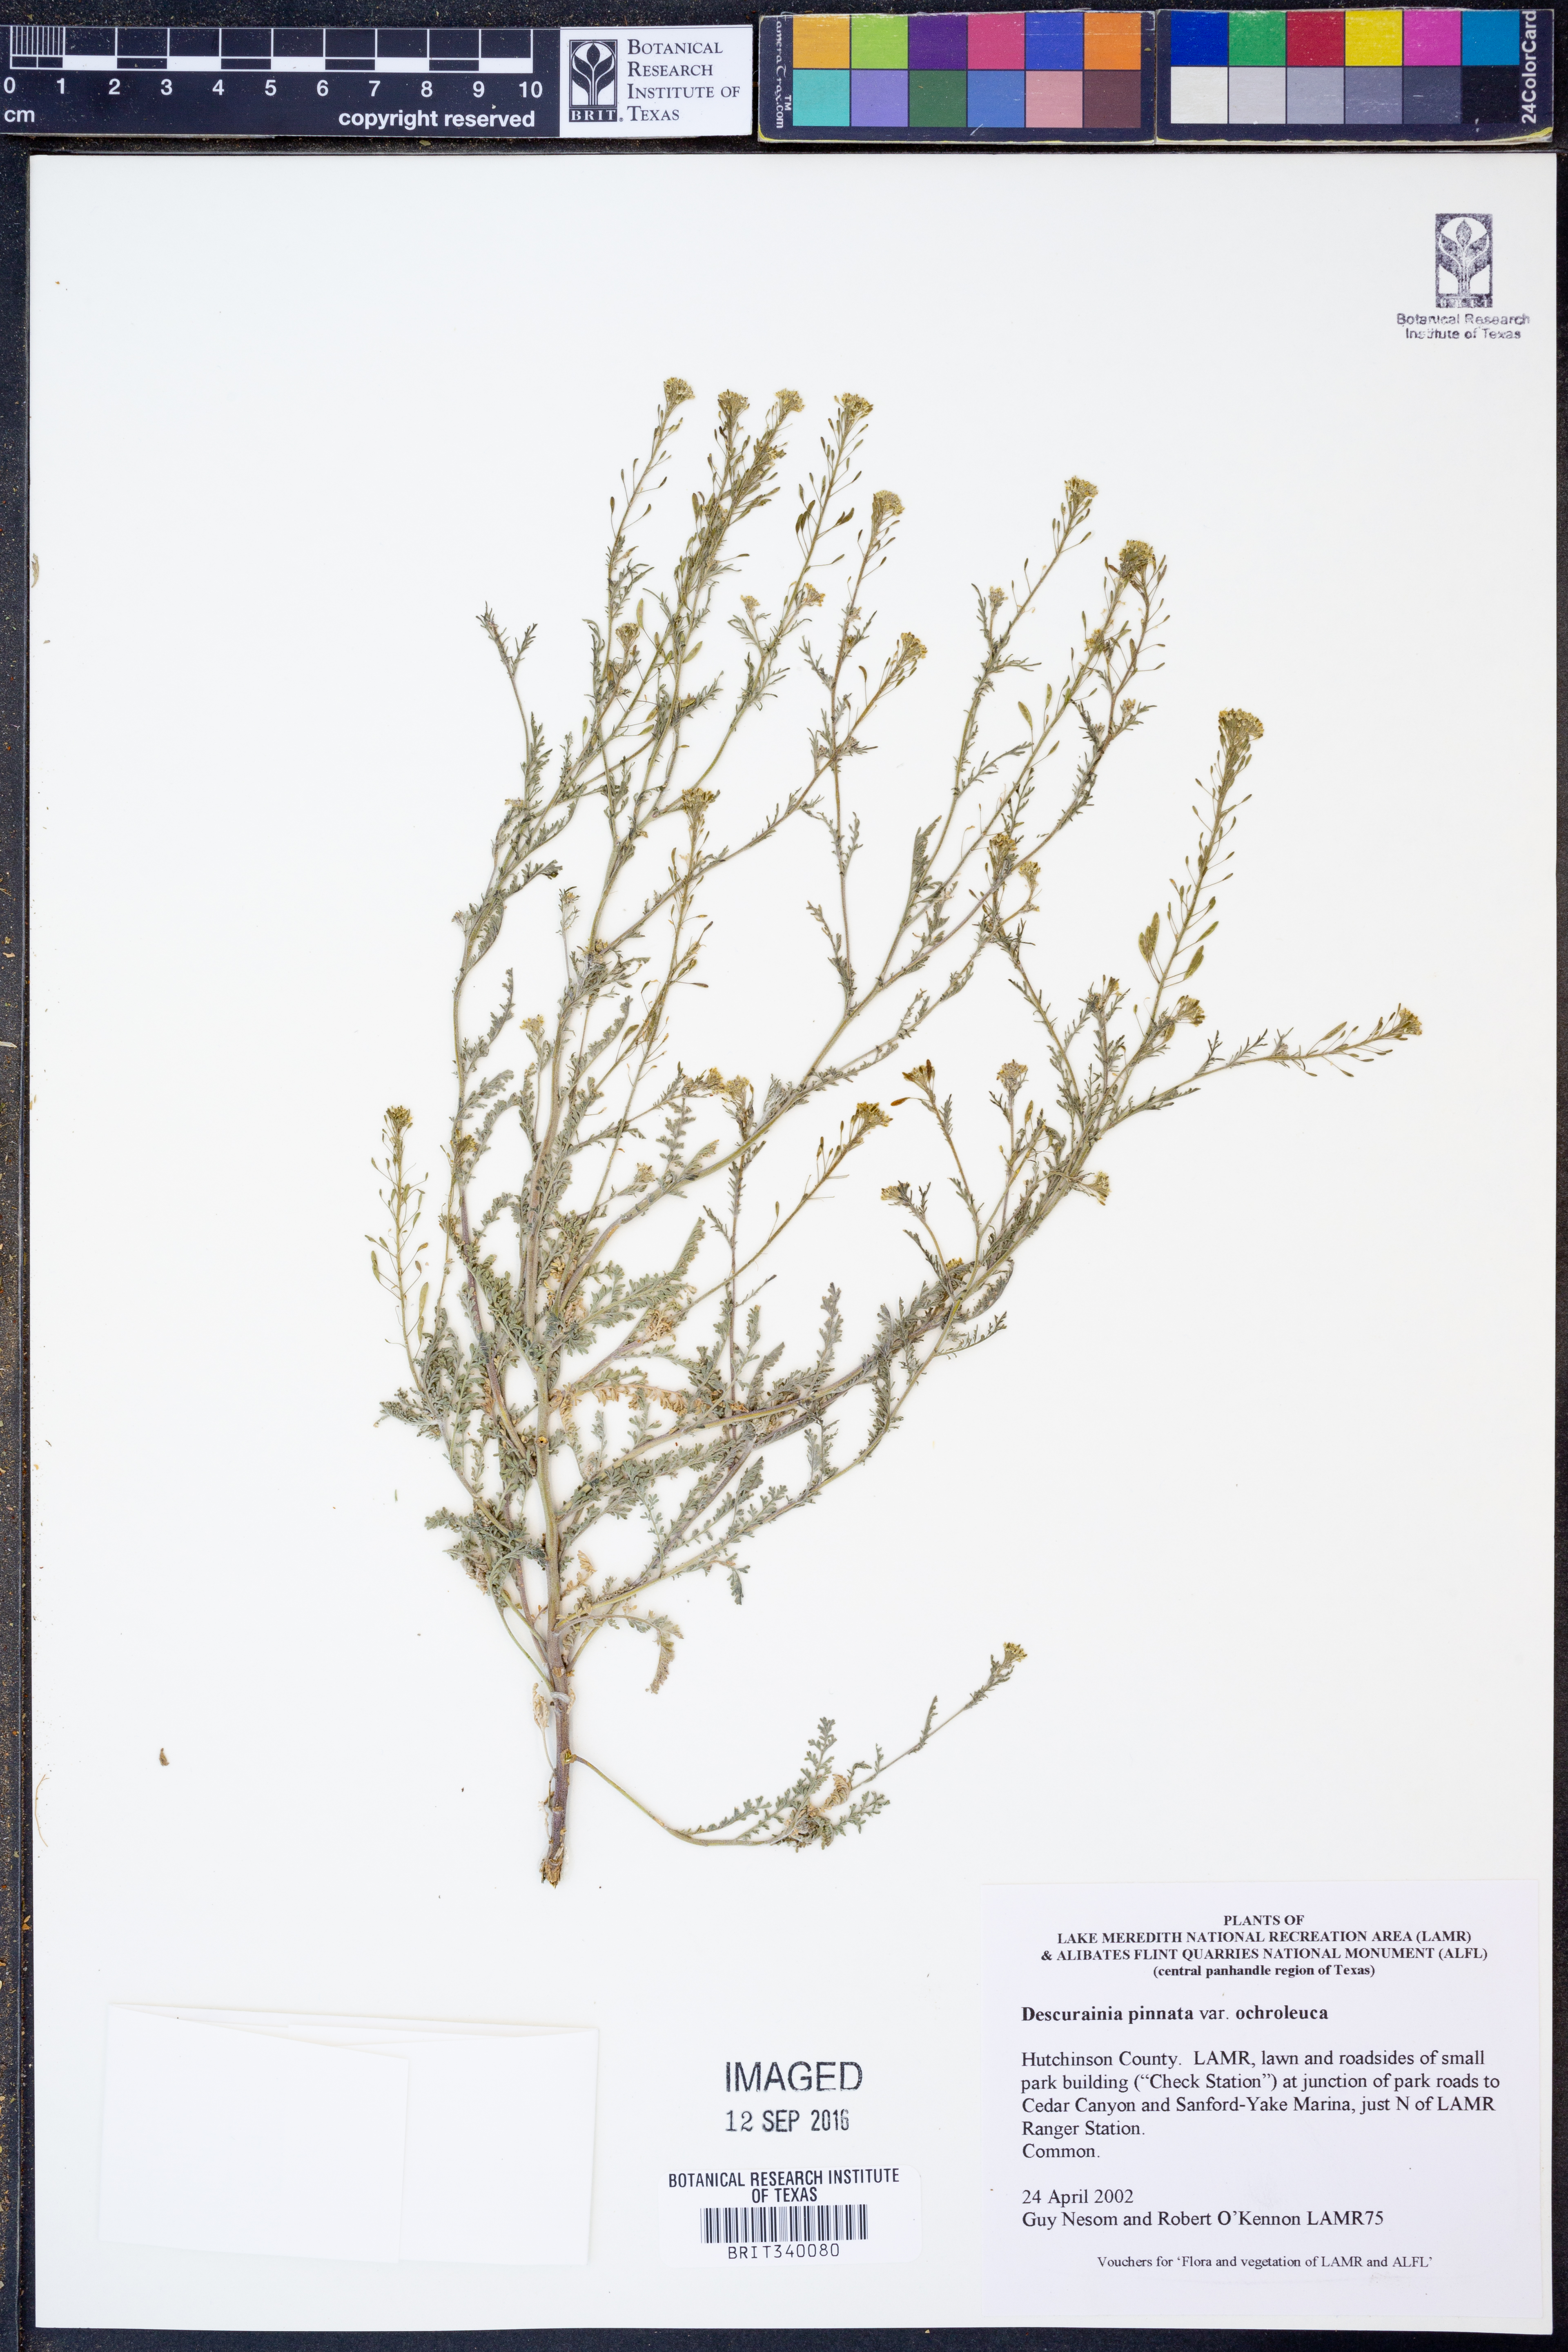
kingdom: Plantae
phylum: Tracheophyta
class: Magnoliopsida
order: Brassicales
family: Brassicaceae
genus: Descurainia
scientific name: Descurainia pinnata
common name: Western tansy mustard
